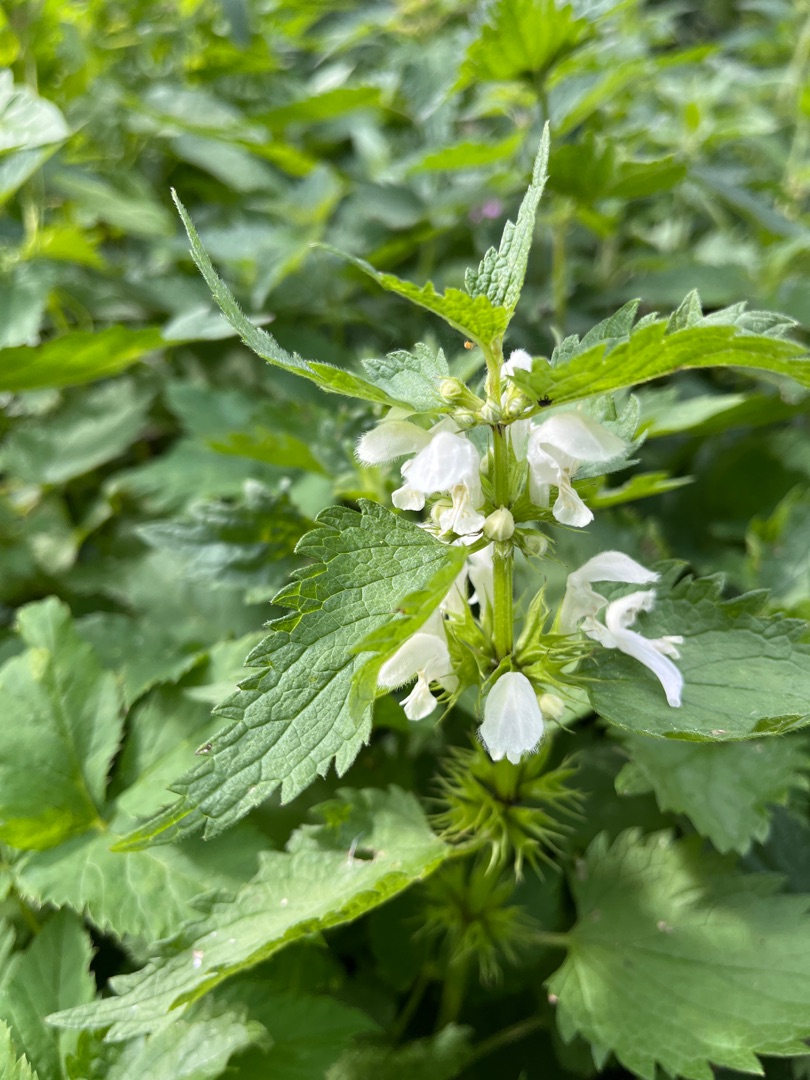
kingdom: Plantae
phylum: Tracheophyta
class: Magnoliopsida
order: Lamiales
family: Lamiaceae
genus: Lamium
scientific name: Lamium album
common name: Døvnælde
